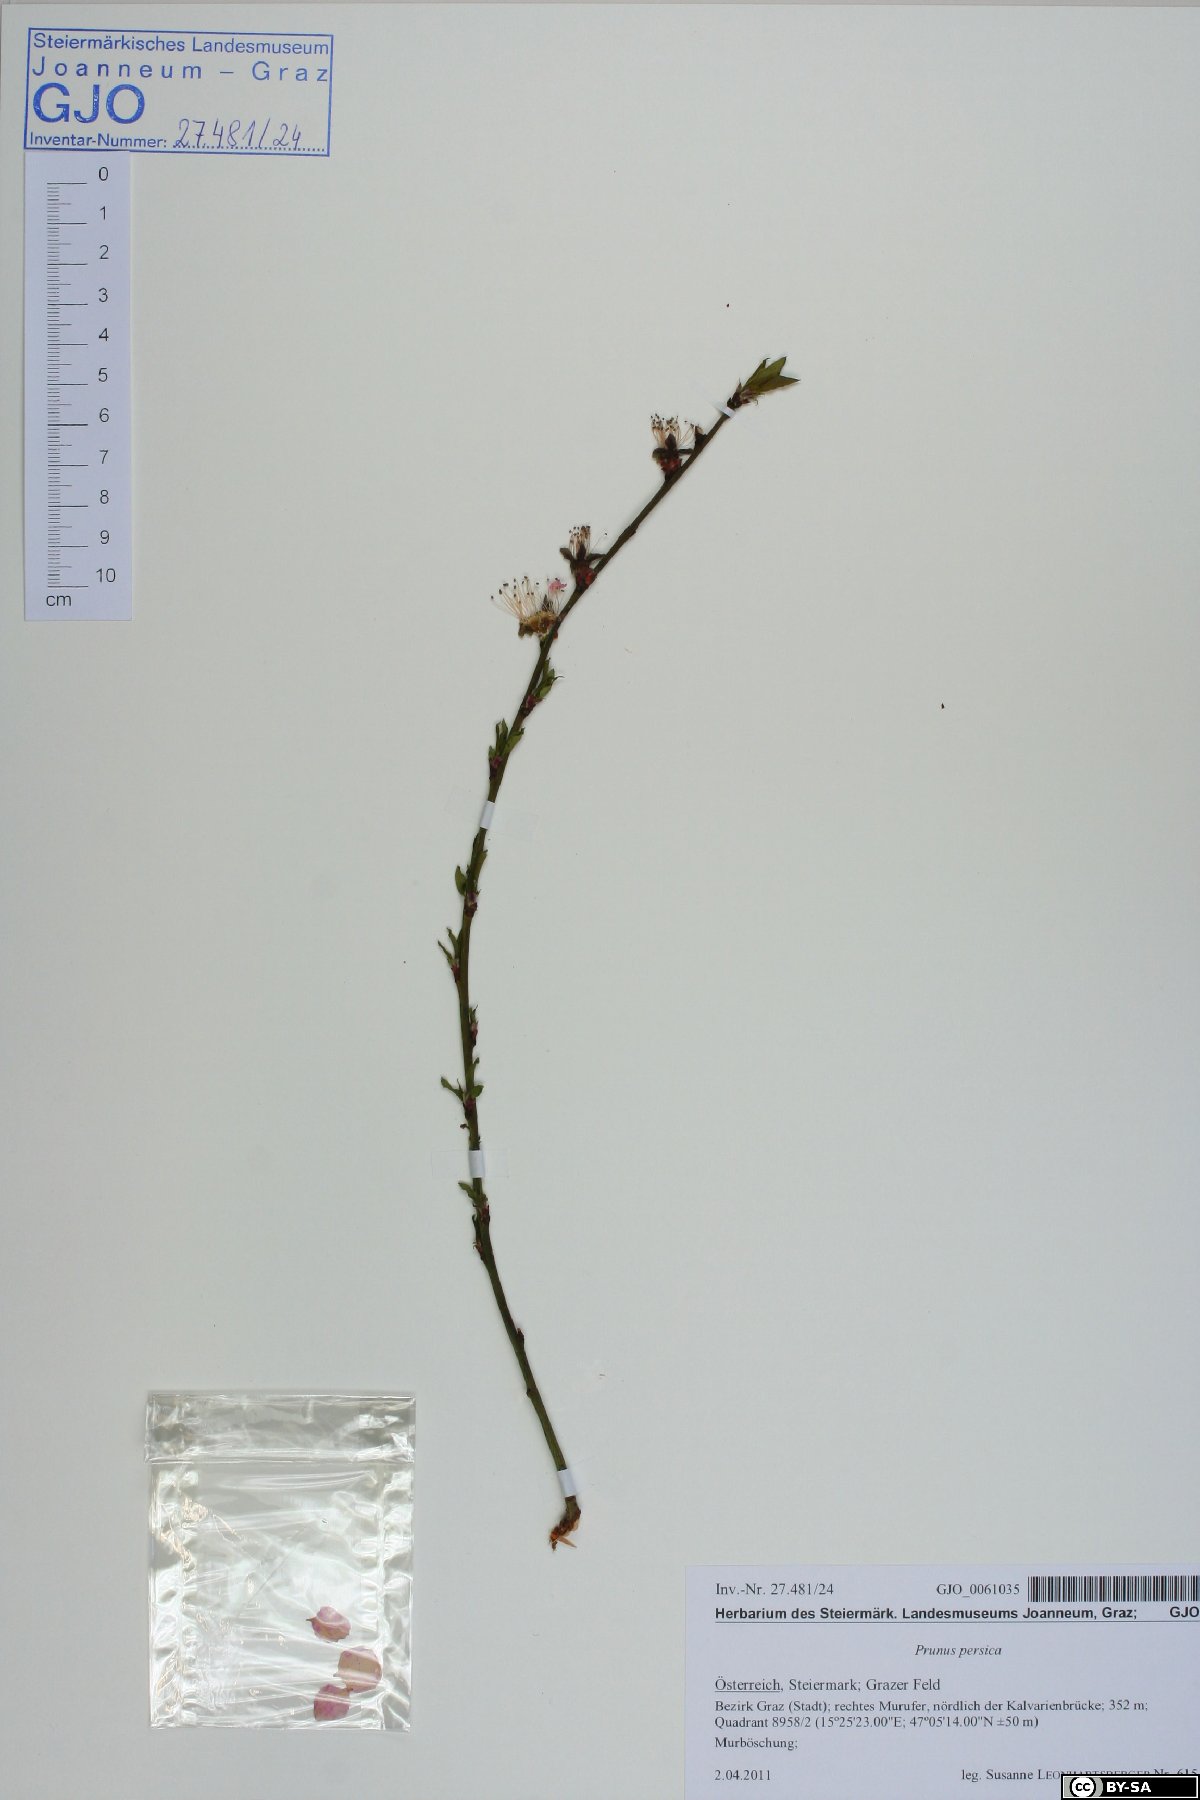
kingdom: Plantae
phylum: Tracheophyta
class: Magnoliopsida
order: Rosales
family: Rosaceae
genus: Prunus
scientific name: Prunus persica
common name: Peach
